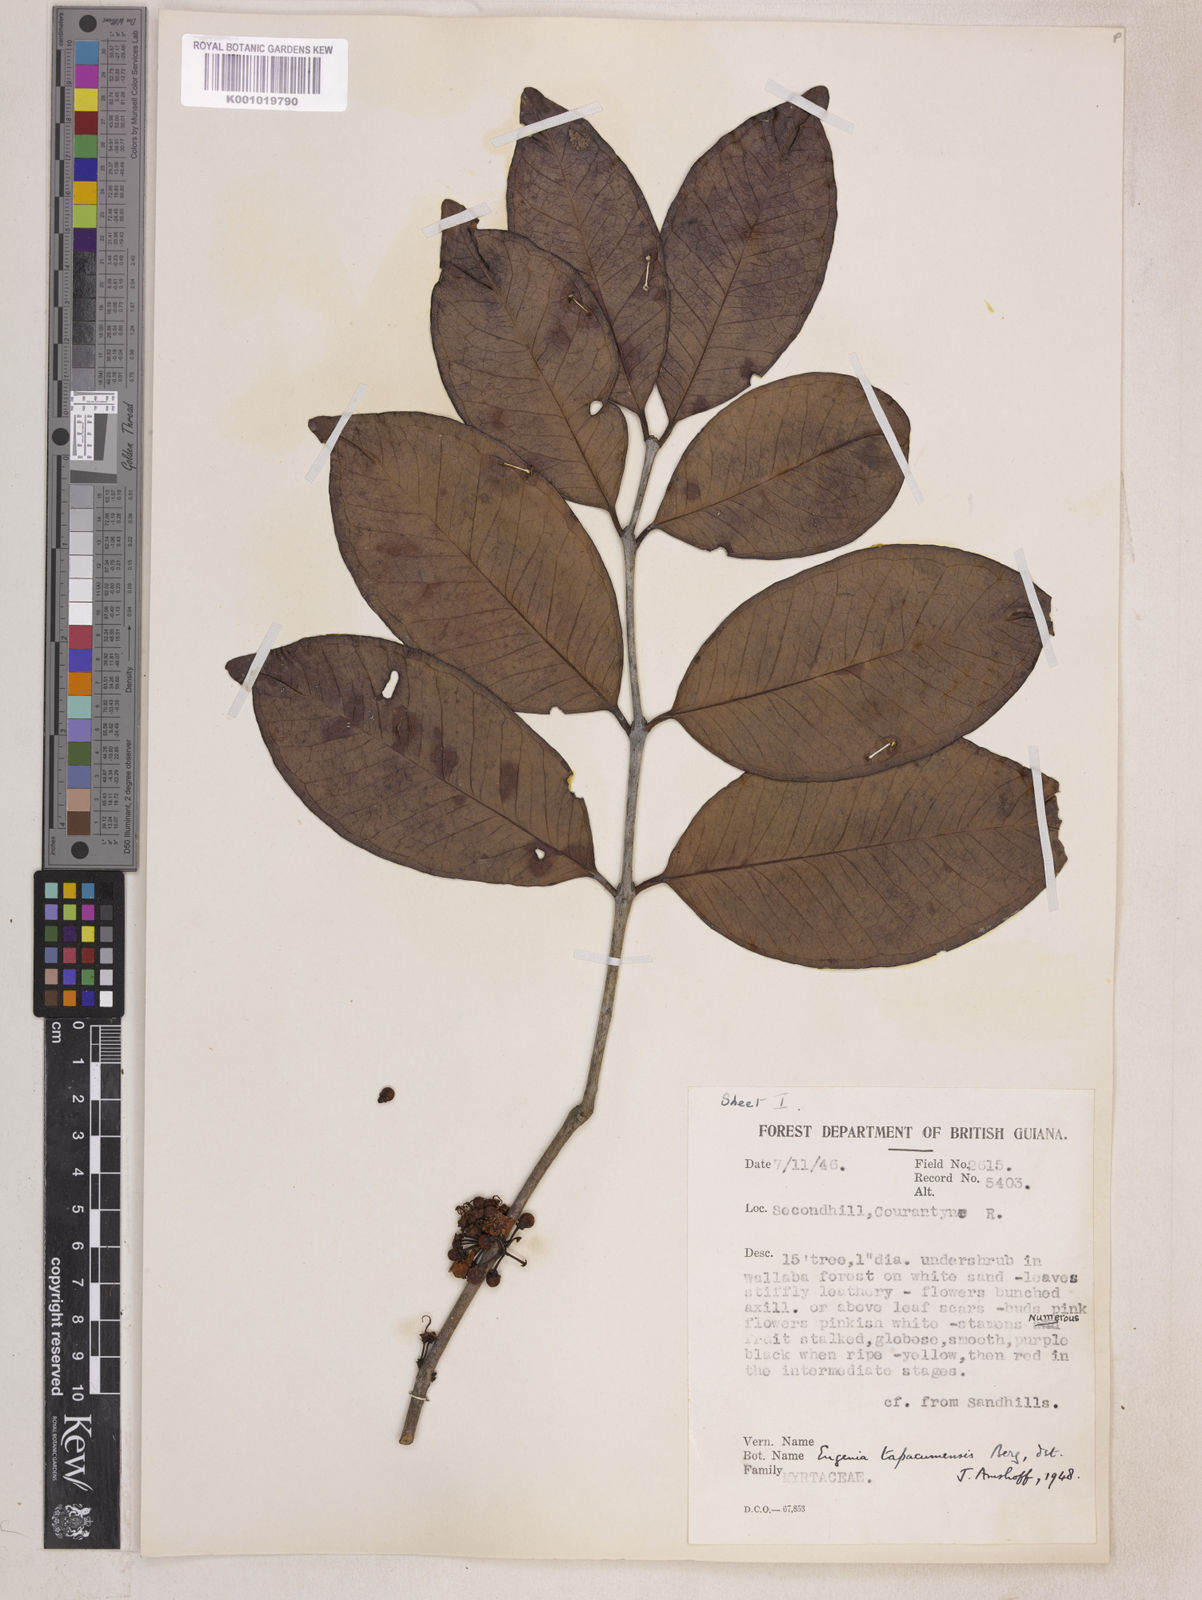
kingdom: Plantae
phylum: Tracheophyta
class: Magnoliopsida
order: Myrtales
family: Myrtaceae
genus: Eugenia
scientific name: Eugenia stictopetala
